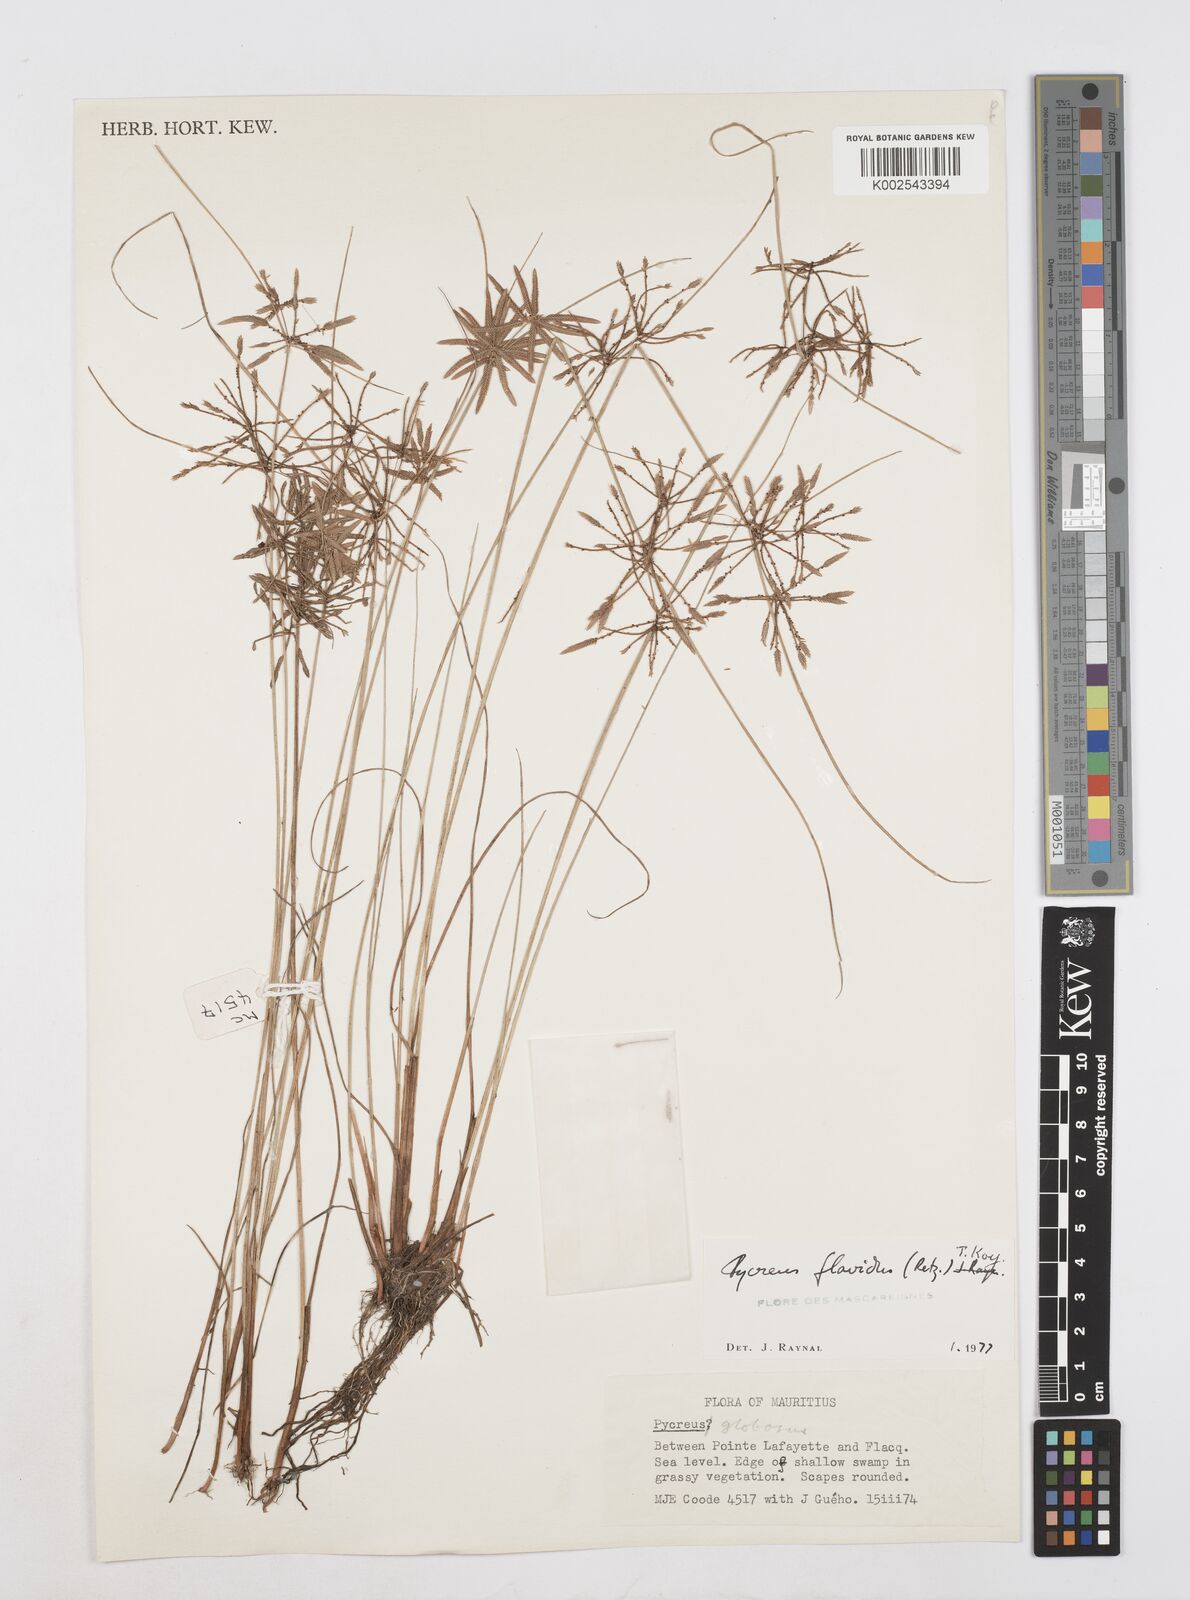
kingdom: Plantae
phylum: Tracheophyta
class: Liliopsida
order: Poales
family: Cyperaceae
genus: Cyperus
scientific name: Cyperus flavidus
